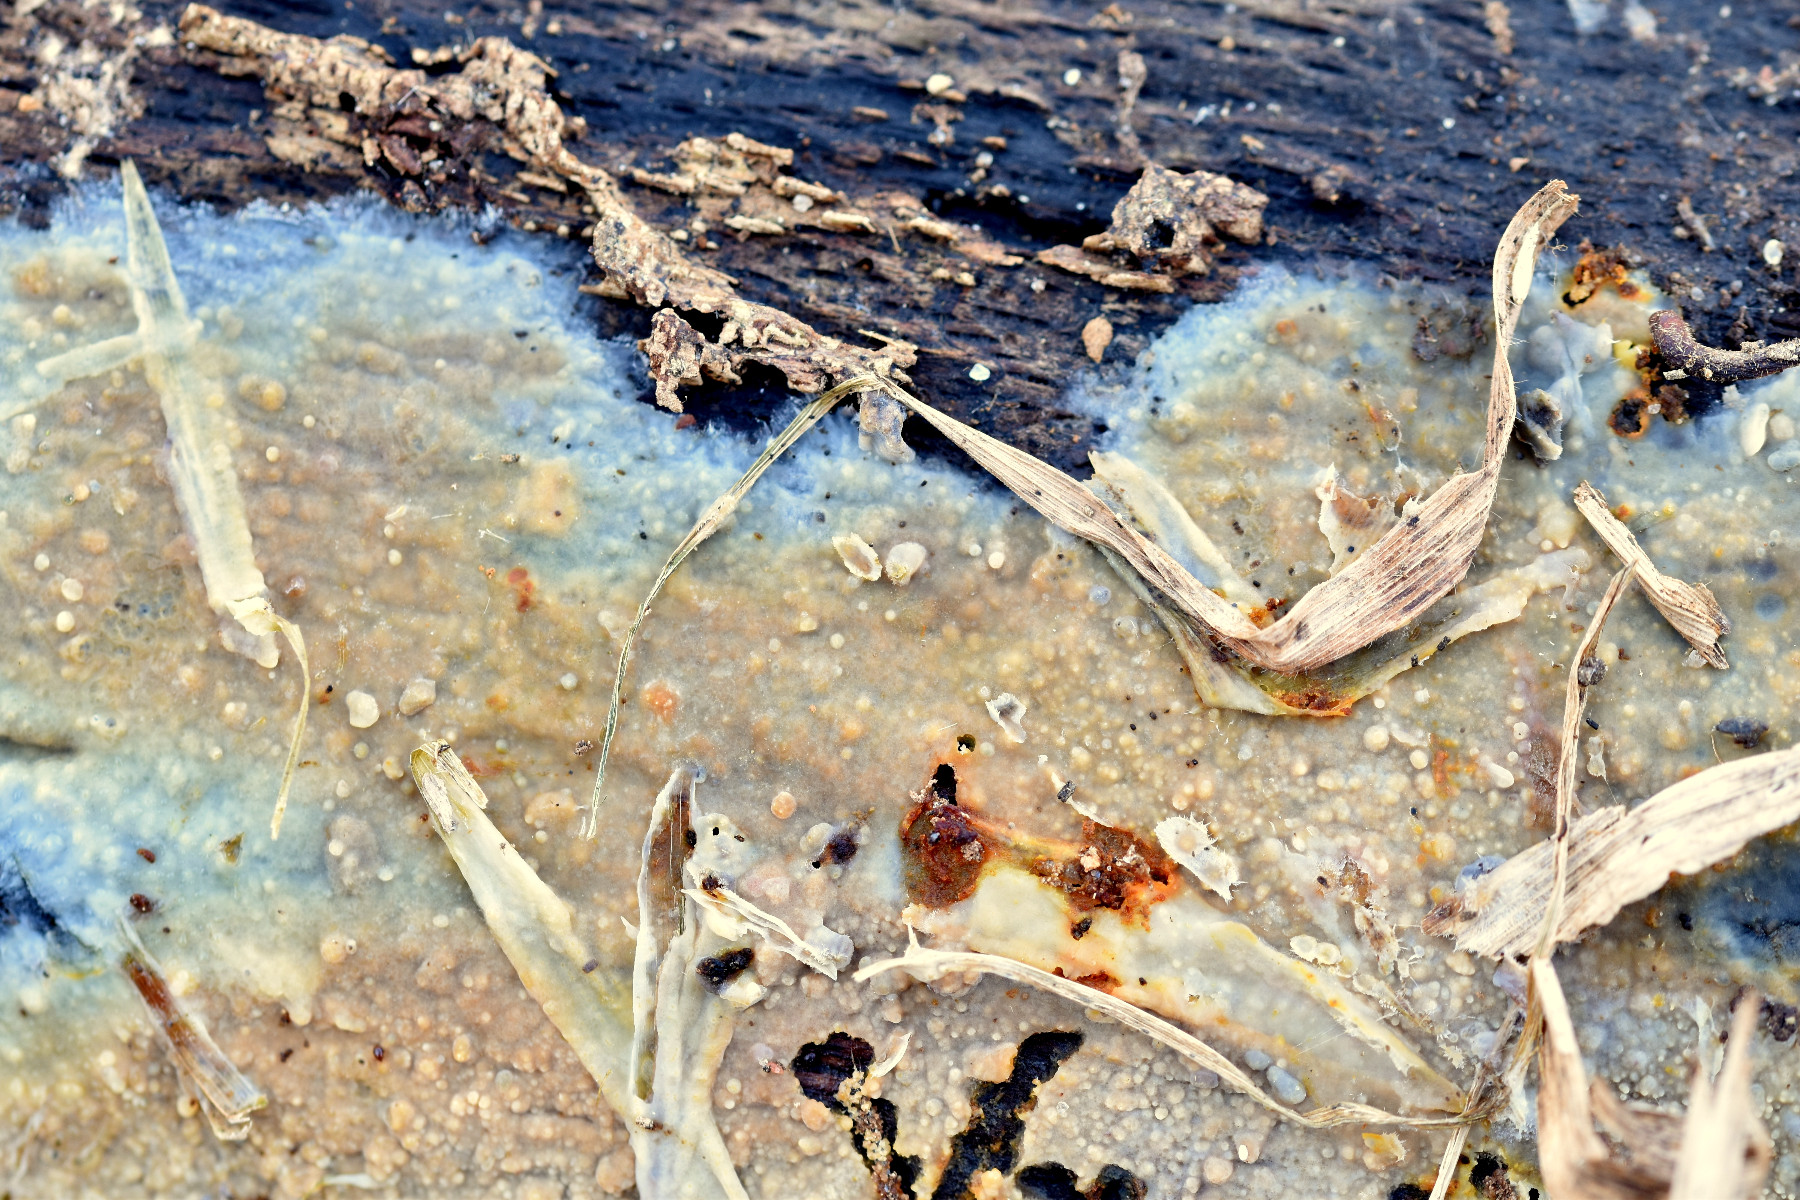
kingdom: Fungi
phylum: Basidiomycota
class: Agaricomycetes
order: Agaricales
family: Radulomycetaceae
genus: Radulomyces
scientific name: Radulomyces confluens
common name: glat naftalinskind
